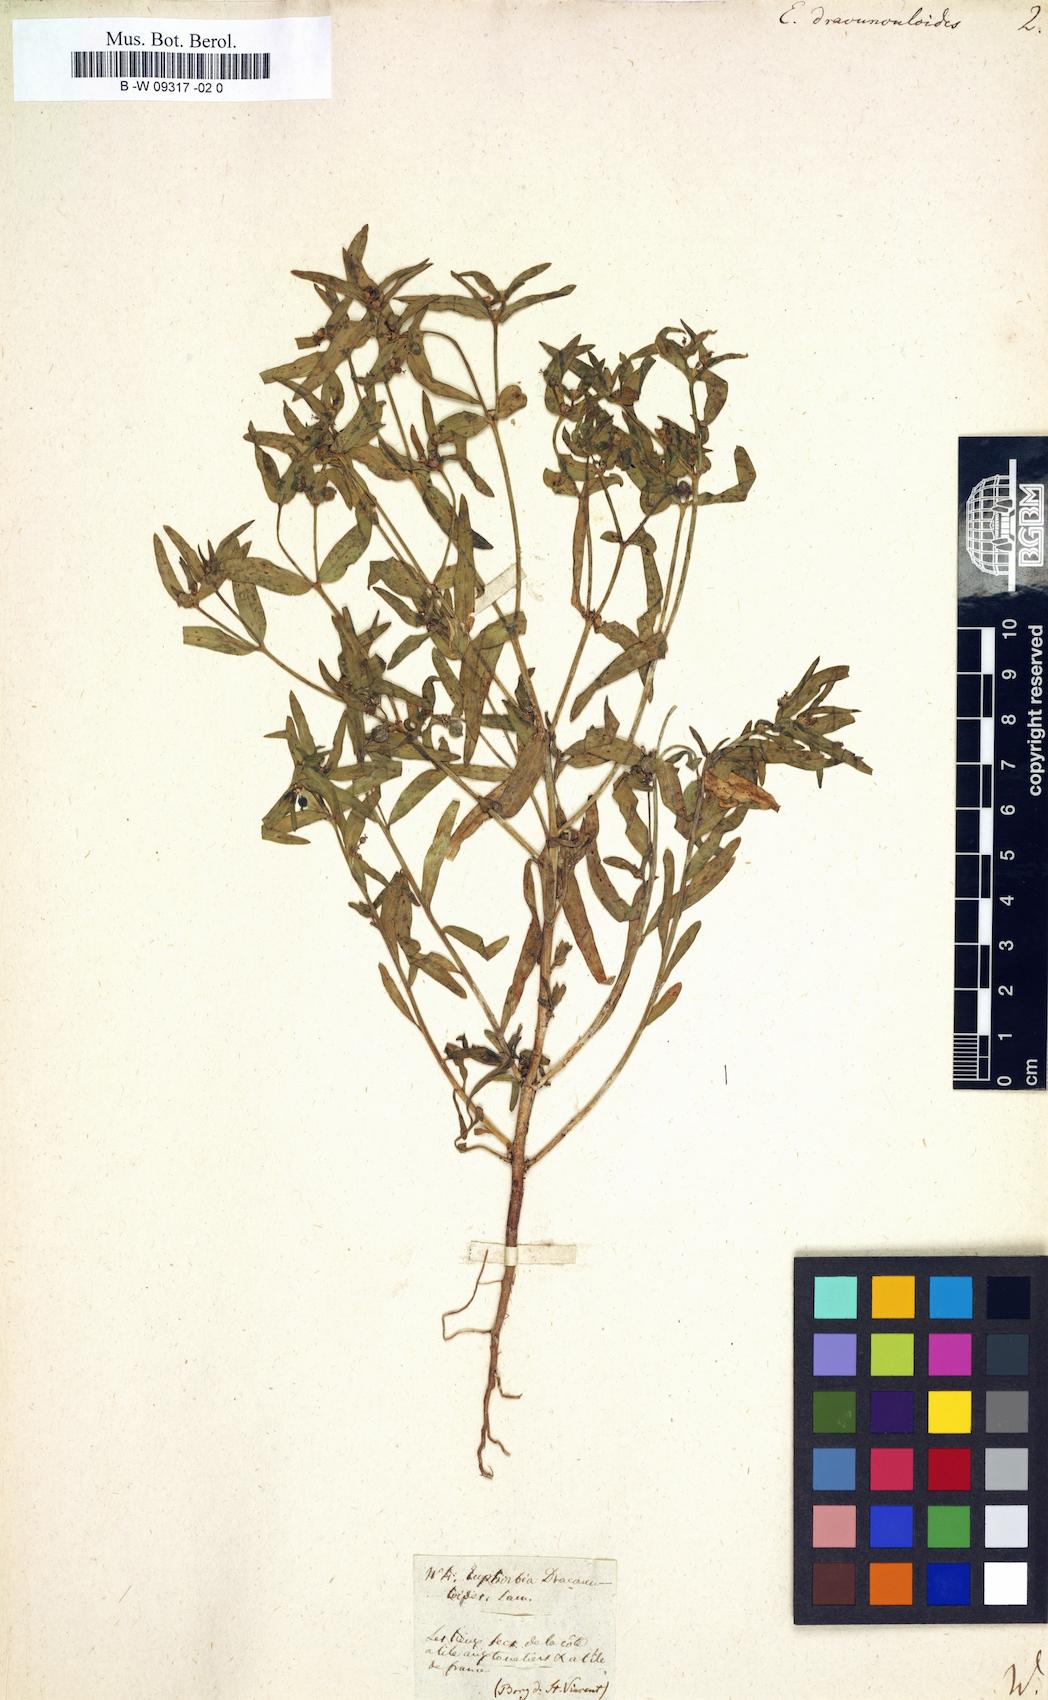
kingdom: Plantae
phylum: Tracheophyta
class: Magnoliopsida
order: Malpighiales
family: Euphorbiaceae
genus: Euphorbia
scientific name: Euphorbia dracunculoides
